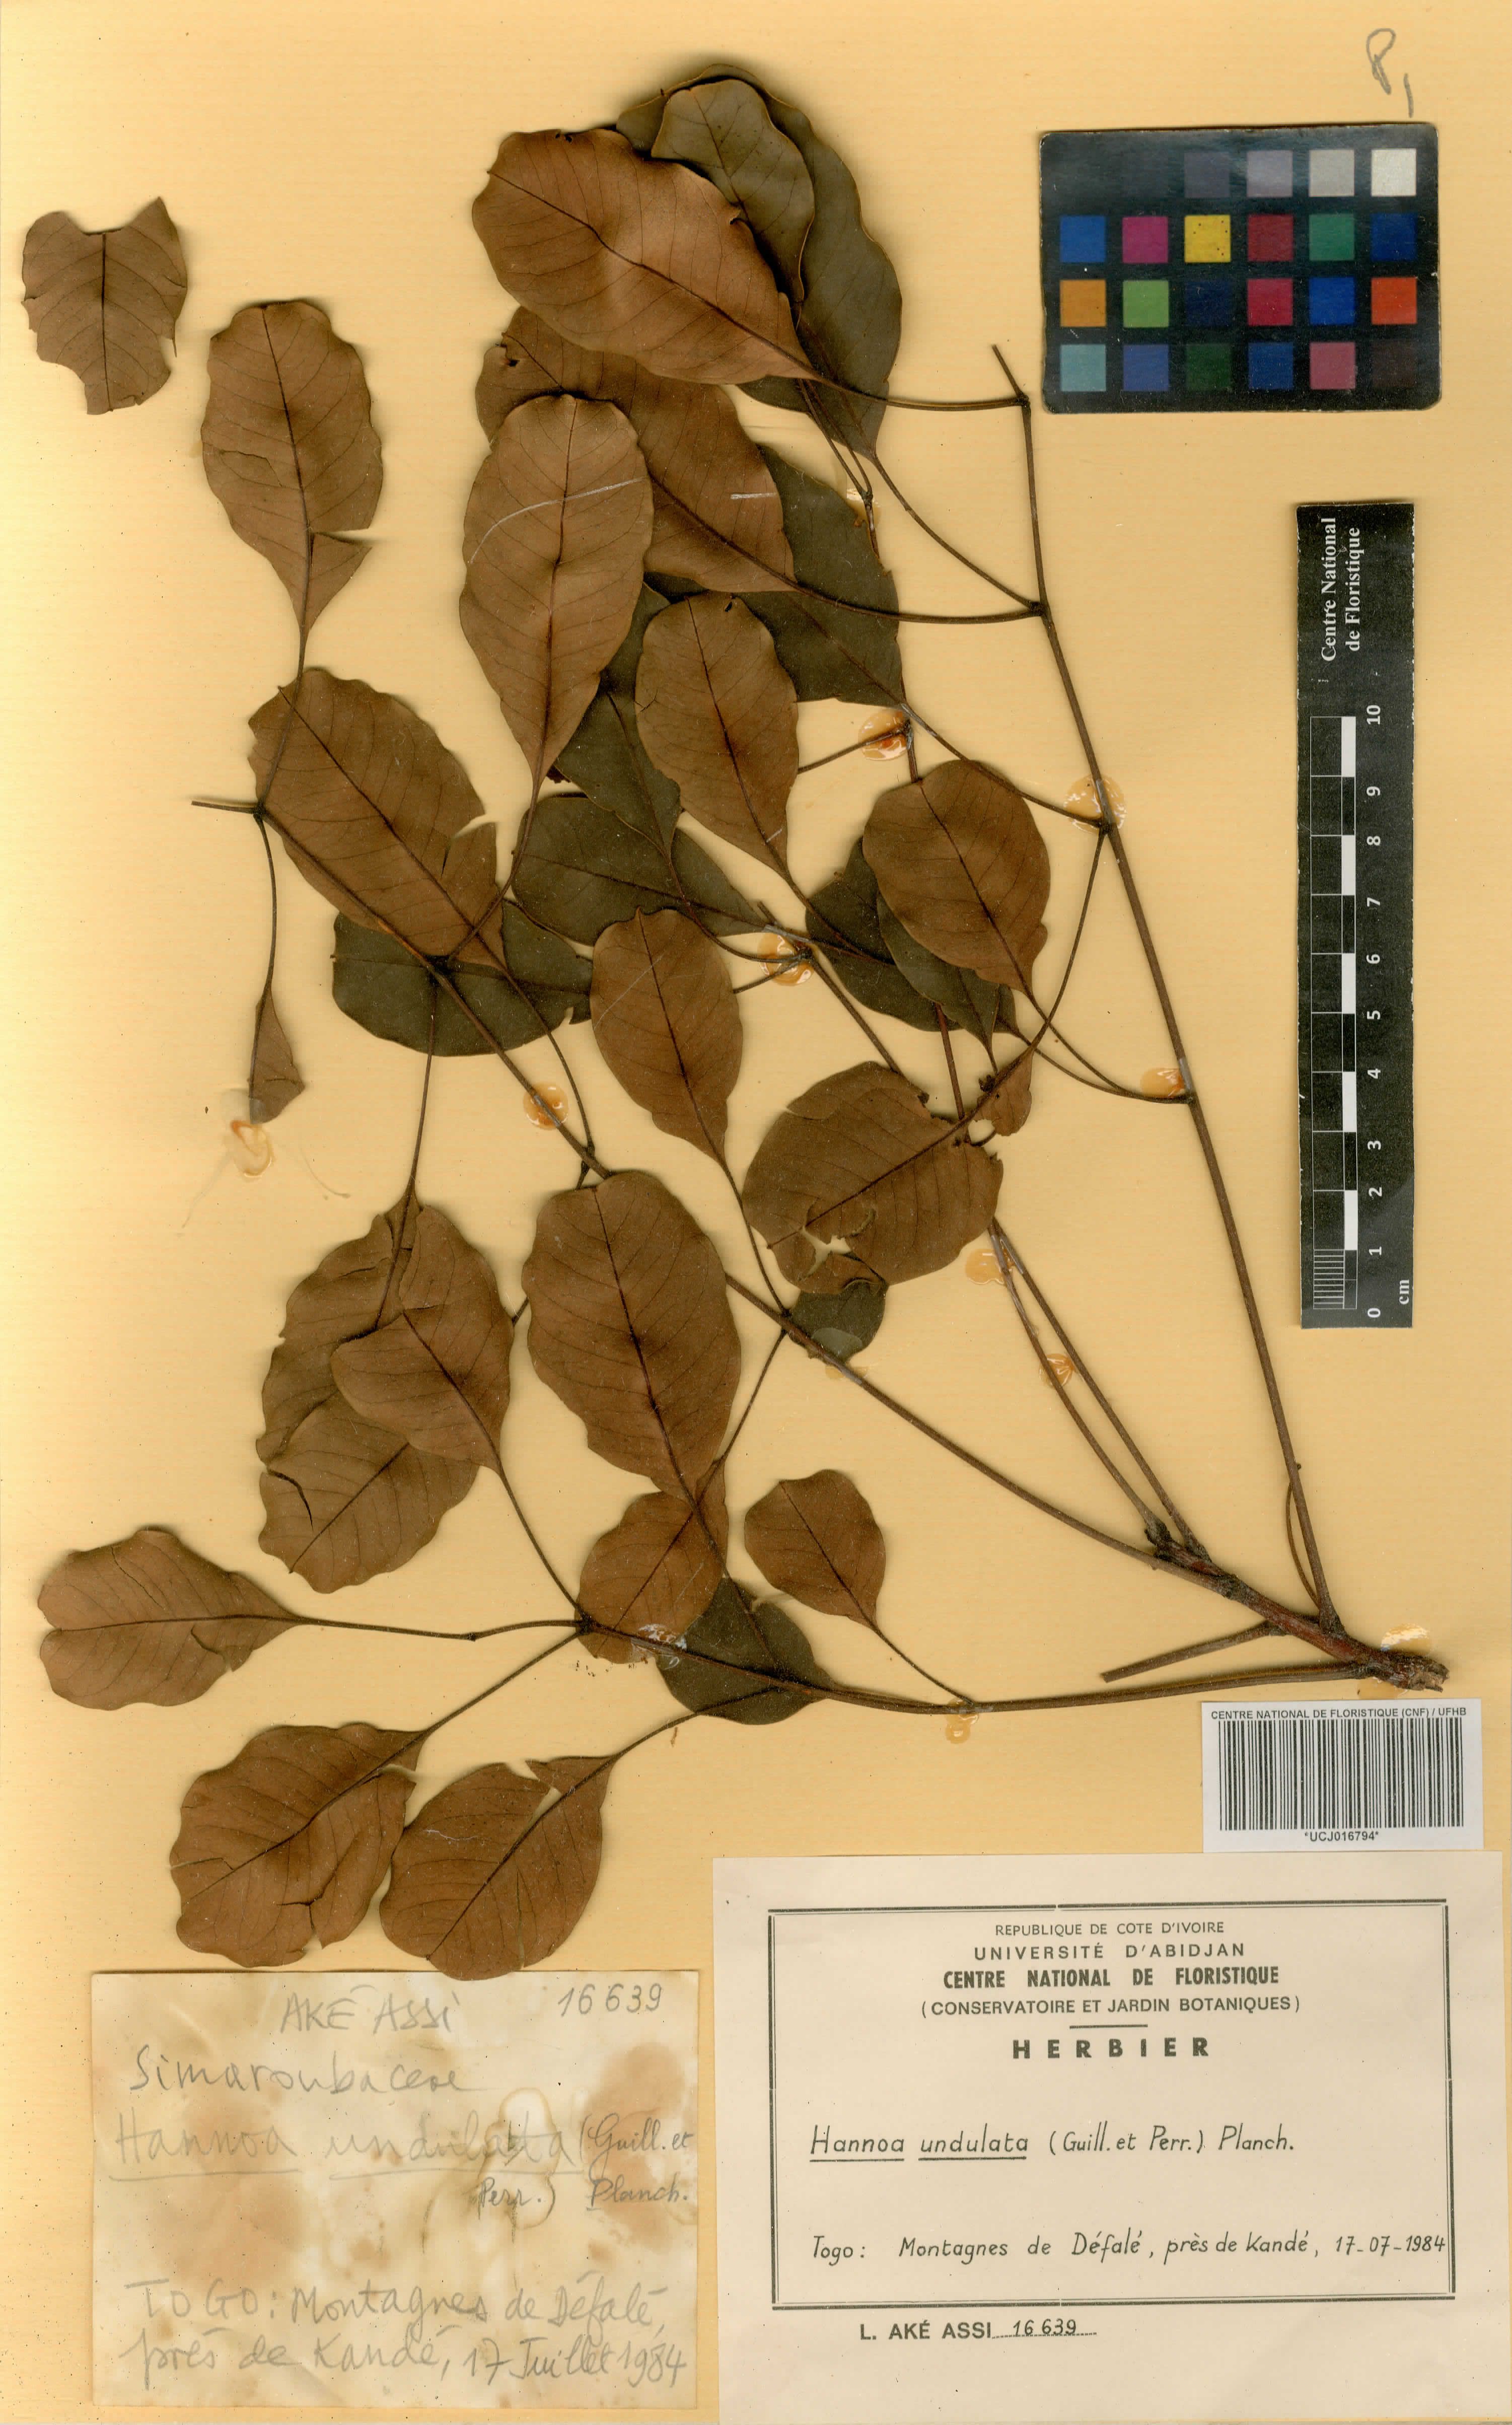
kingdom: Plantae
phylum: Tracheophyta
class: Magnoliopsida
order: Sapindales
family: Simaroubaceae
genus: Odyendyea
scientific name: Odyendyea klaineana
